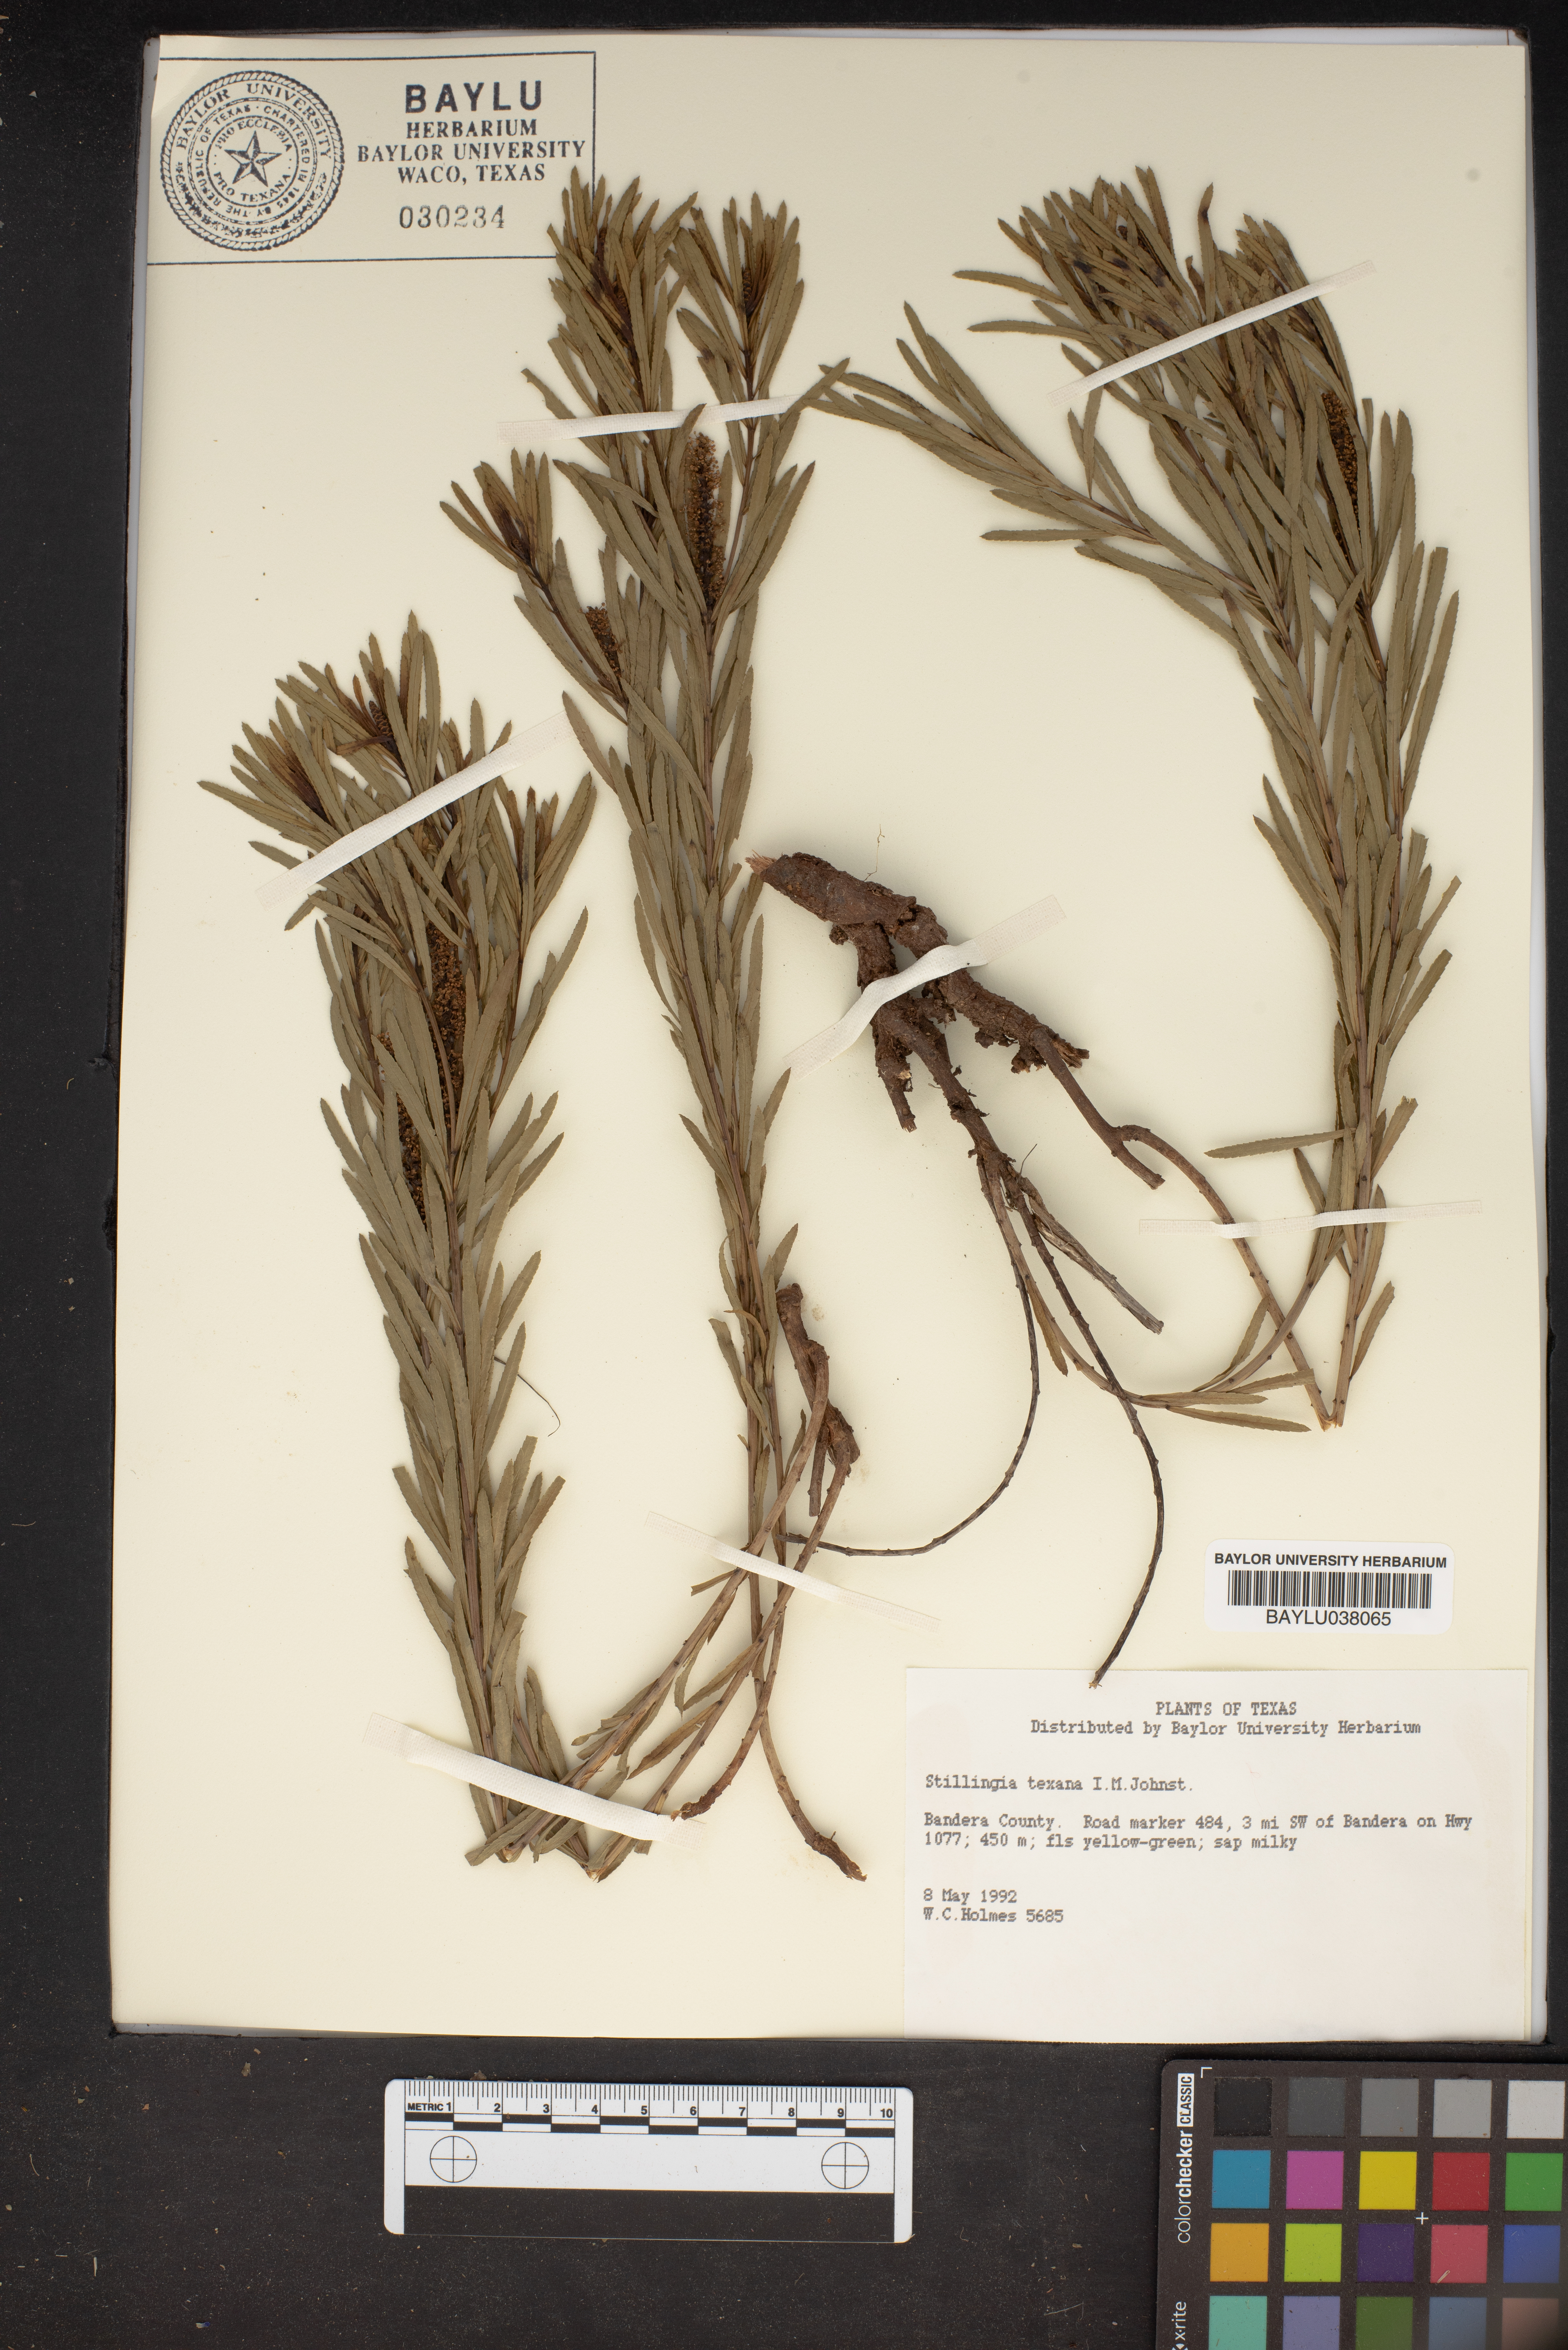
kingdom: Plantae
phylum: Tracheophyta
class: Magnoliopsida
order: Malpighiales
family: Euphorbiaceae
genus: Stillingia
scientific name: Stillingia texana
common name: Texas stillingia
